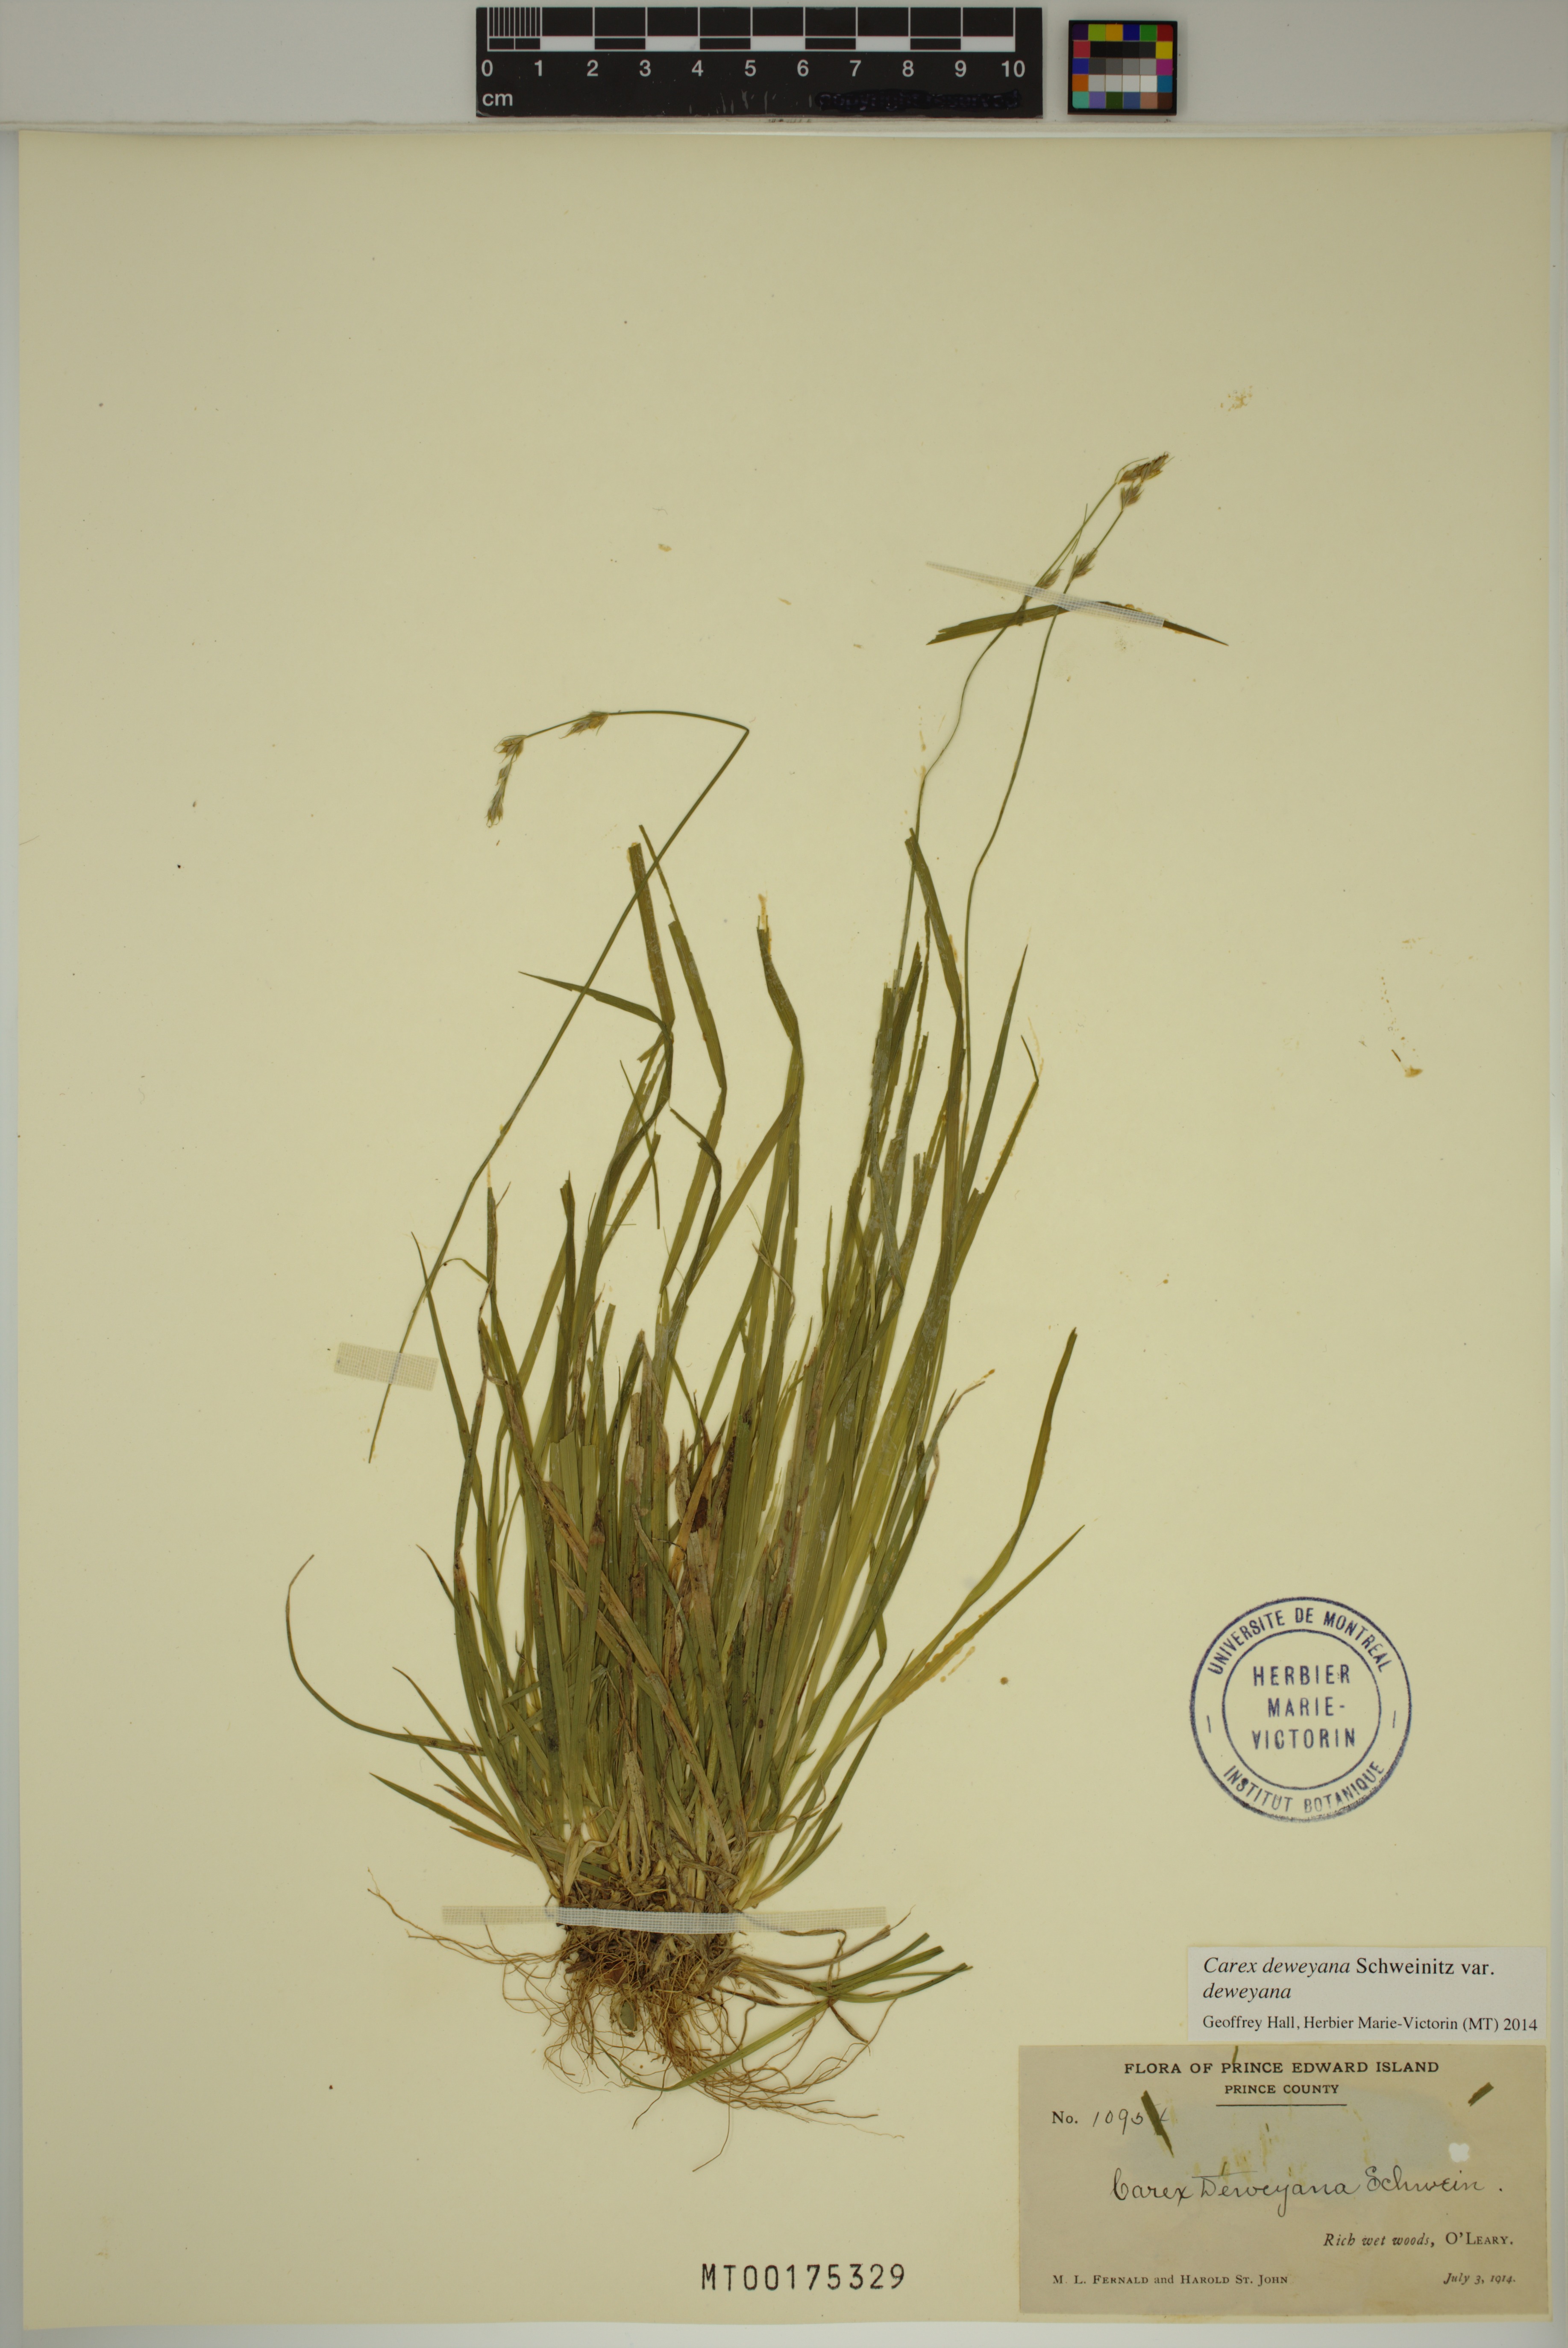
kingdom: Plantae
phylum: Tracheophyta
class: Liliopsida
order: Poales
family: Cyperaceae
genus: Carex
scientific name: Carex deweyana
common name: Dewey's sedge
